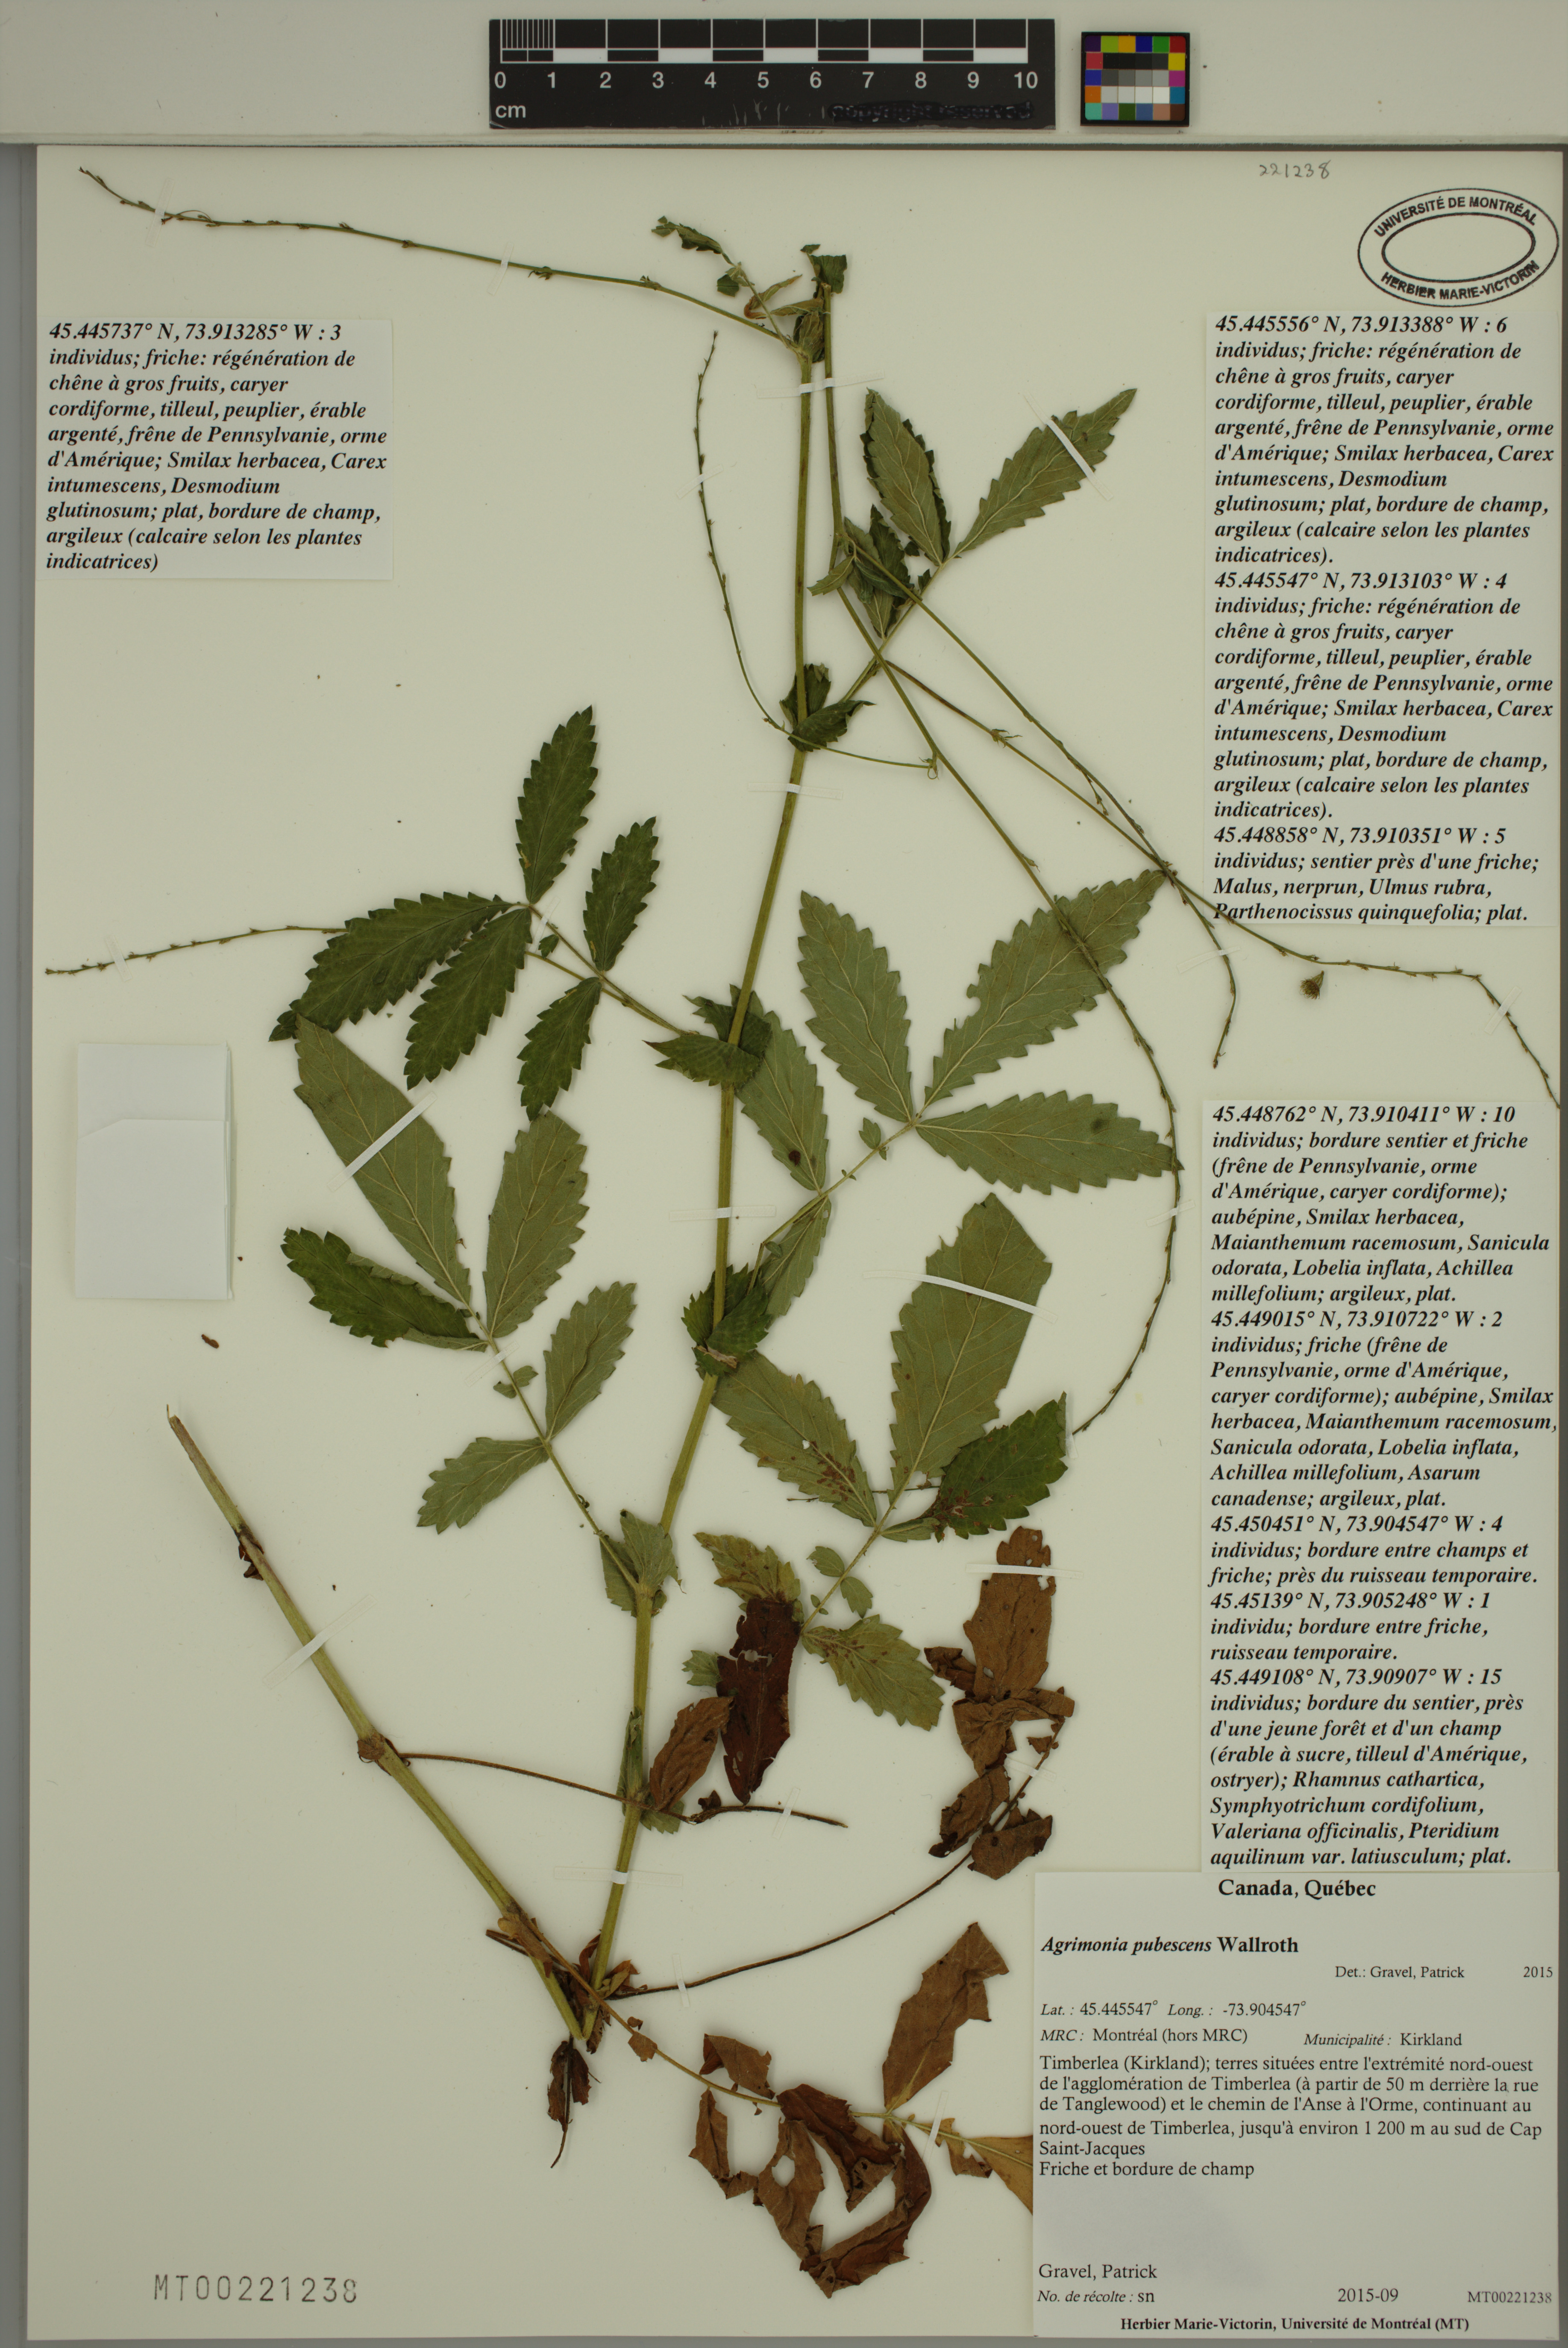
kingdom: Plantae
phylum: Tracheophyta
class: Magnoliopsida
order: Rosales
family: Rosaceae
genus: Agrimonia
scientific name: Agrimonia pubescens
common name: Downy agrimony
